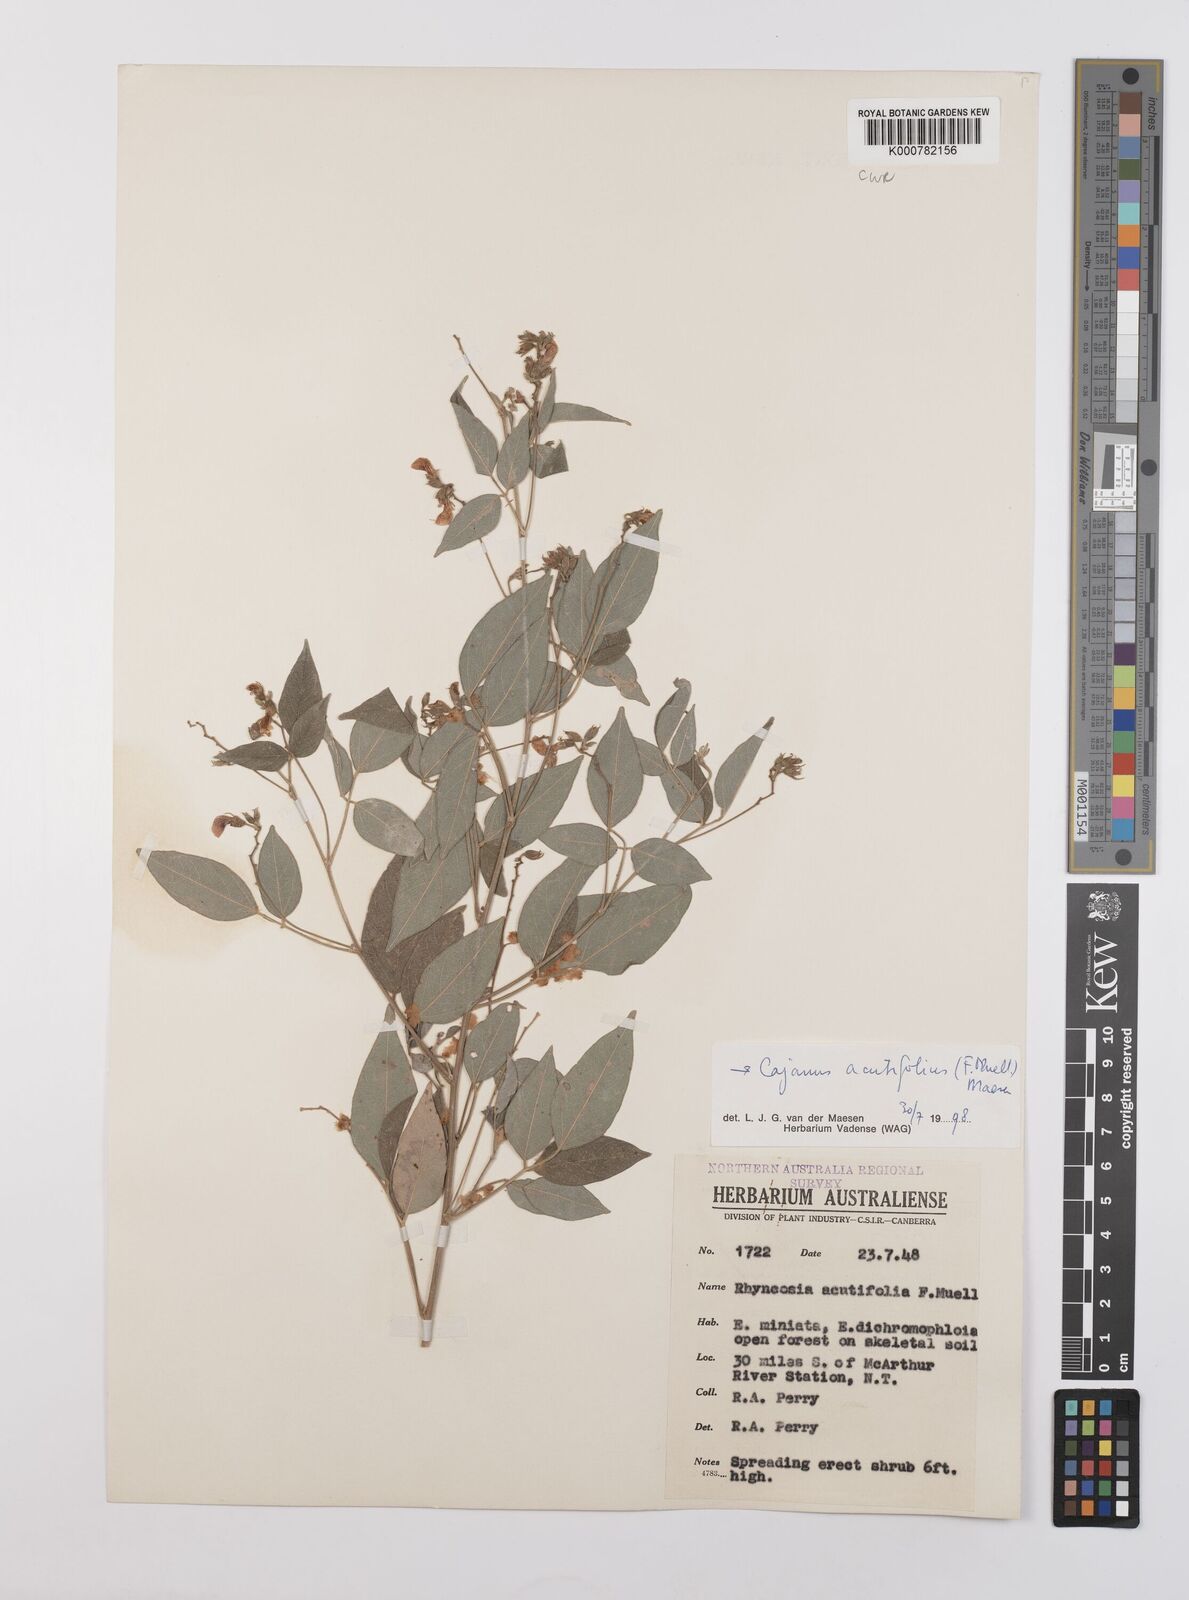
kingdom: Plantae
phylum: Tracheophyta
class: Magnoliopsida
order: Fabales
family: Fabaceae
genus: Cajanus
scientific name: Cajanus acutifolius
